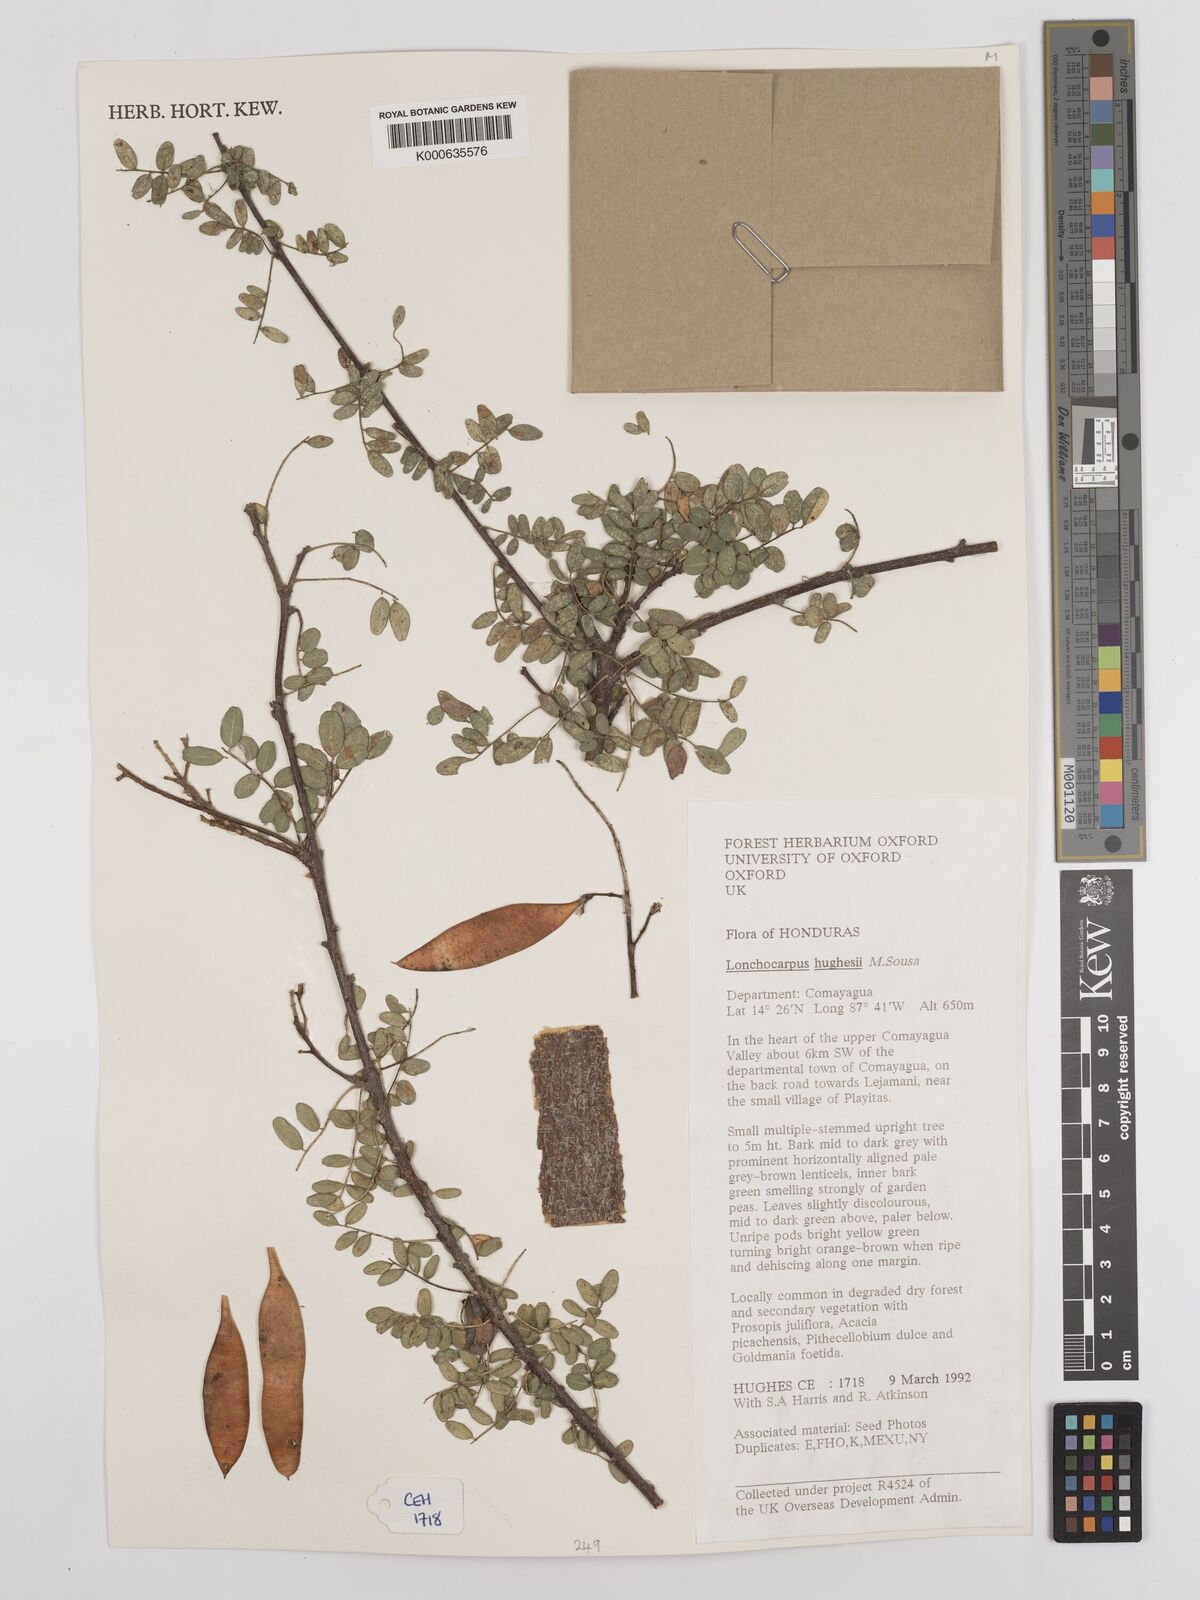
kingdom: Plantae
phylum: Tracheophyta
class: Magnoliopsida
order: Fabales
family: Fabaceae
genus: Lonchocarpus
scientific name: Lonchocarpus hughesii
